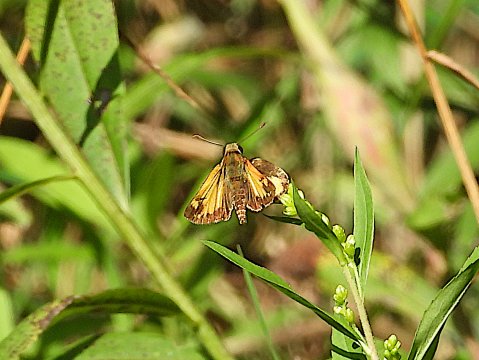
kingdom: Animalia
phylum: Arthropoda
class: Insecta
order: Lepidoptera
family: Hesperiidae
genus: Lon
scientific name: Lon zabulon
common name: Zabulon Skipper
